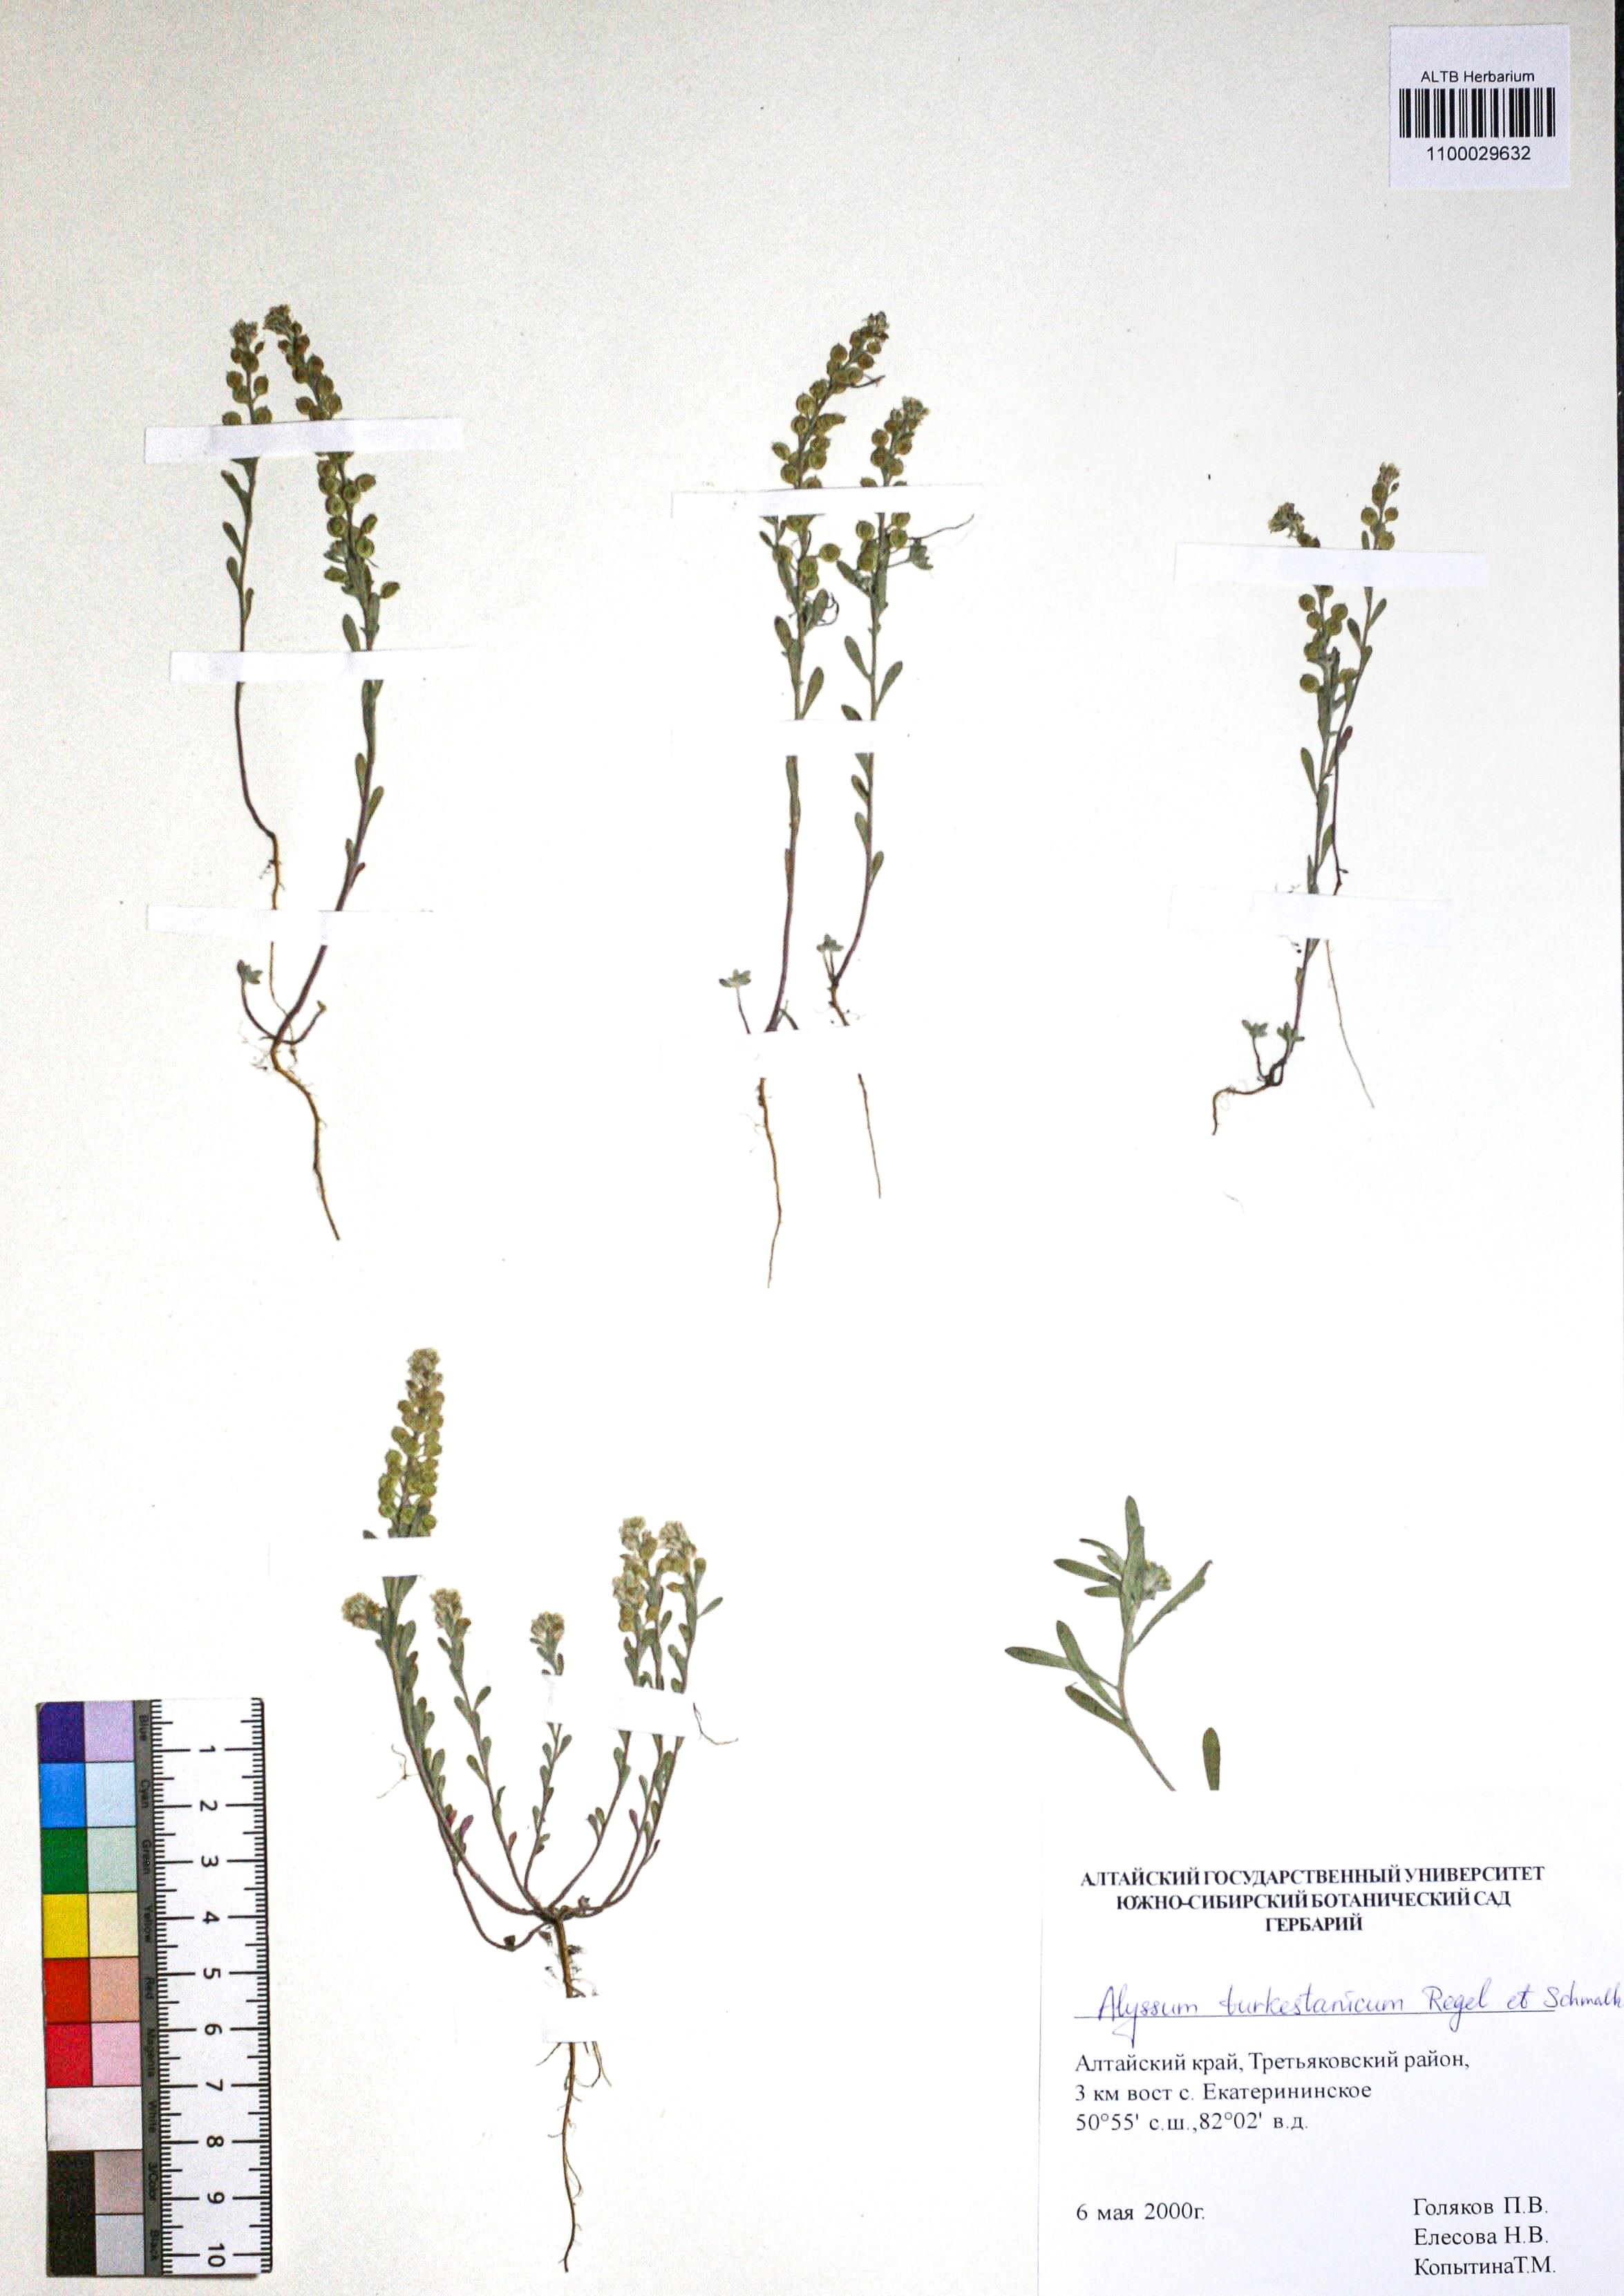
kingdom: Plantae
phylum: Tracheophyta
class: Magnoliopsida
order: Brassicales
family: Brassicaceae
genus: Alyssum
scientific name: Alyssum turkestanicum
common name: Desert alyssum
